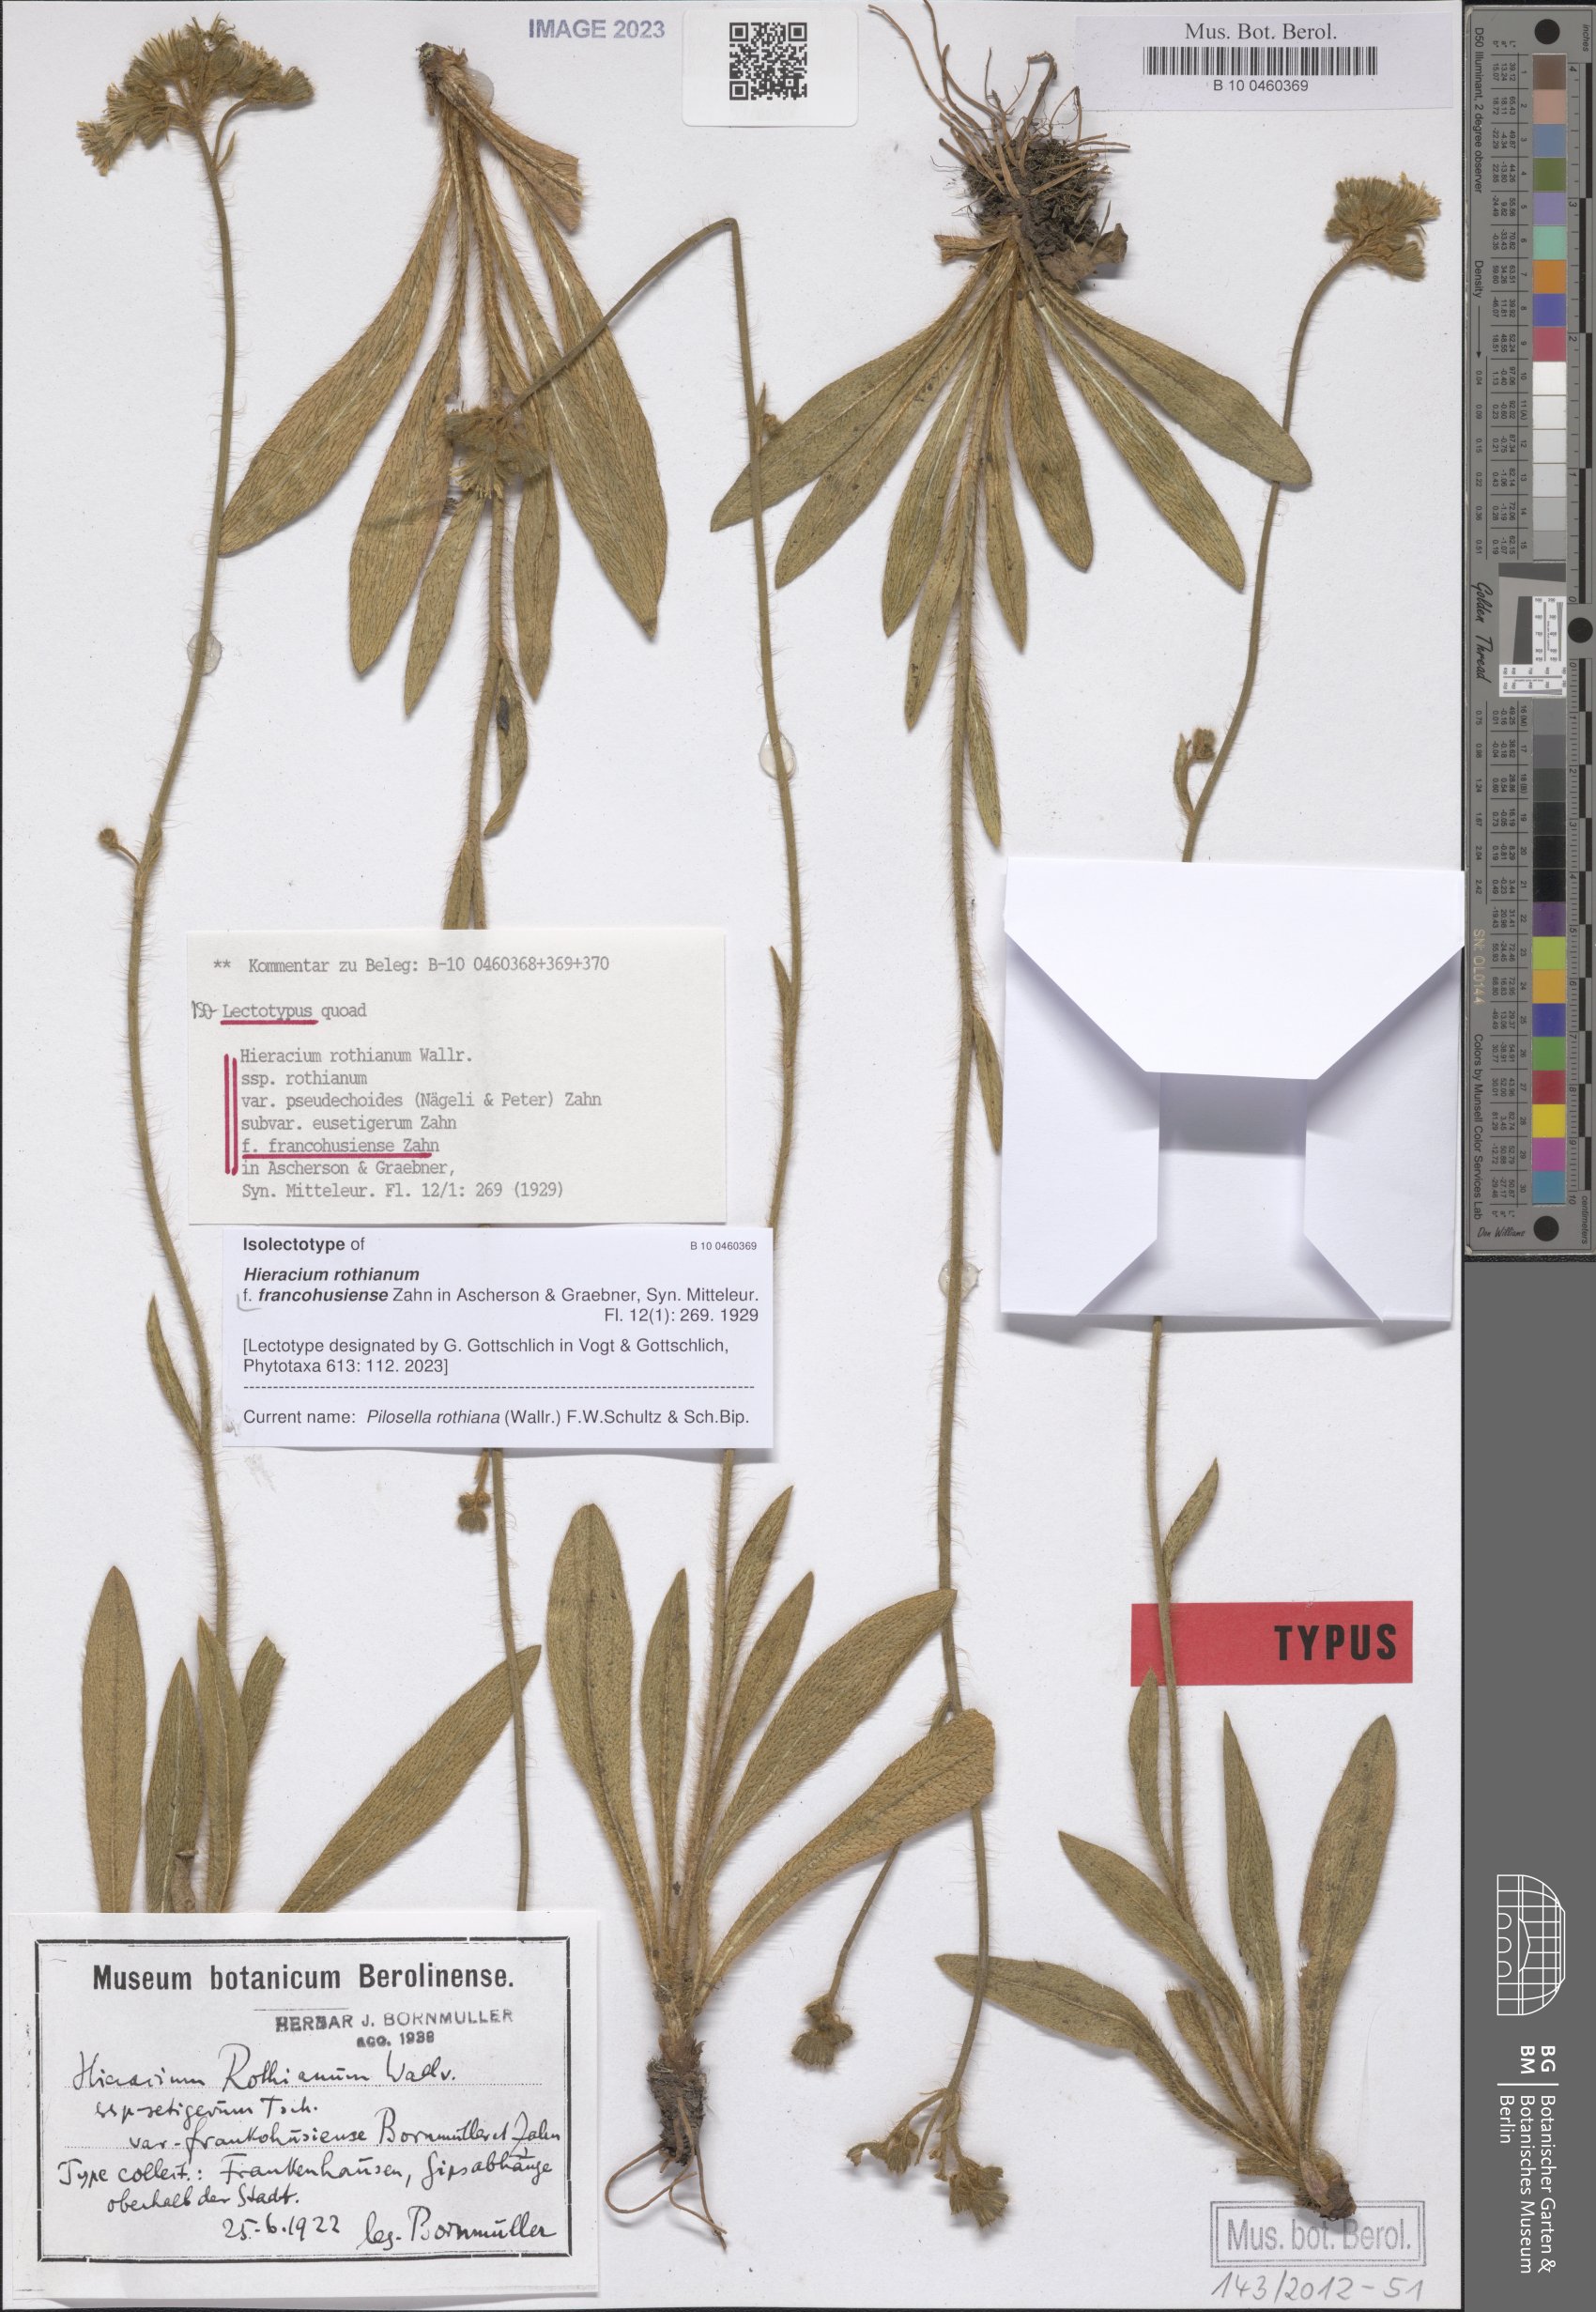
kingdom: Plantae
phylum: Tracheophyta
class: Magnoliopsida
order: Asterales
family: Asteraceae
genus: Hieracium
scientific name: Hieracium rothianum
